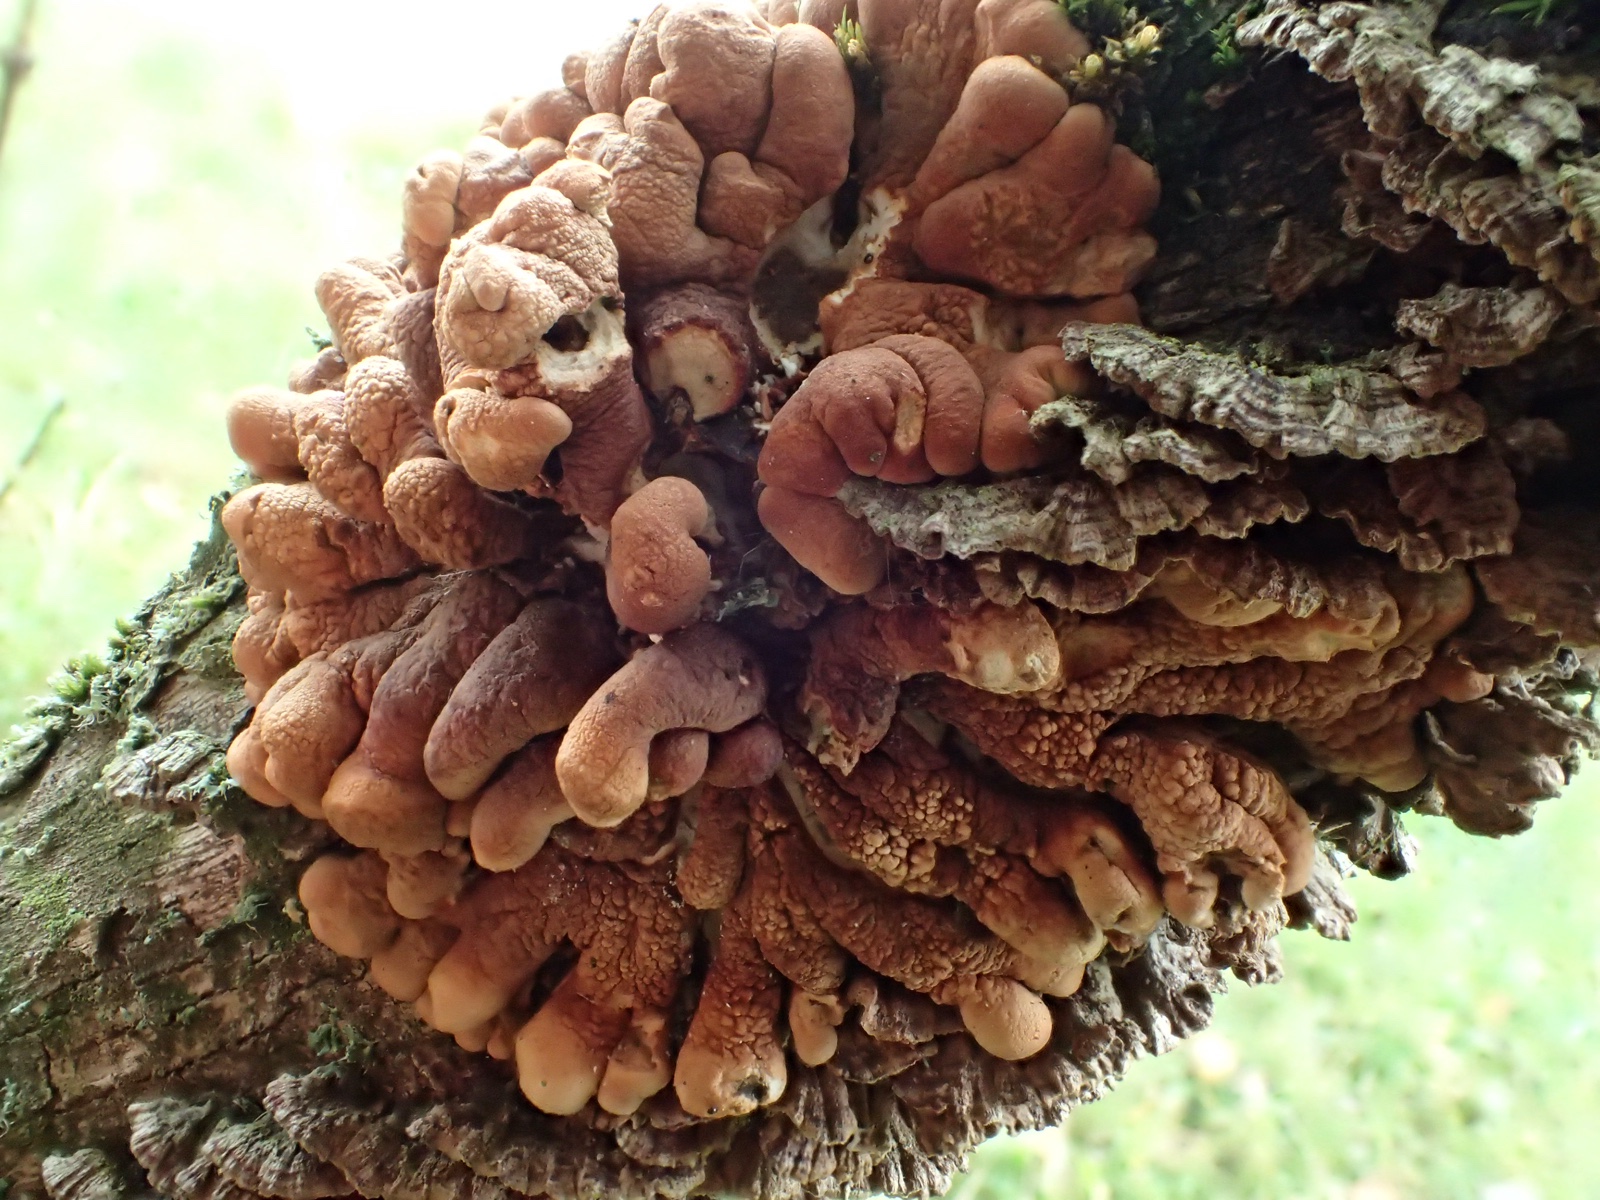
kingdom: Fungi
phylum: Ascomycota
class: Sordariomycetes
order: Hypocreales
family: Hypocreaceae
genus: Hypocreopsis
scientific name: Hypocreopsis lichenoides
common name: pilfinger
